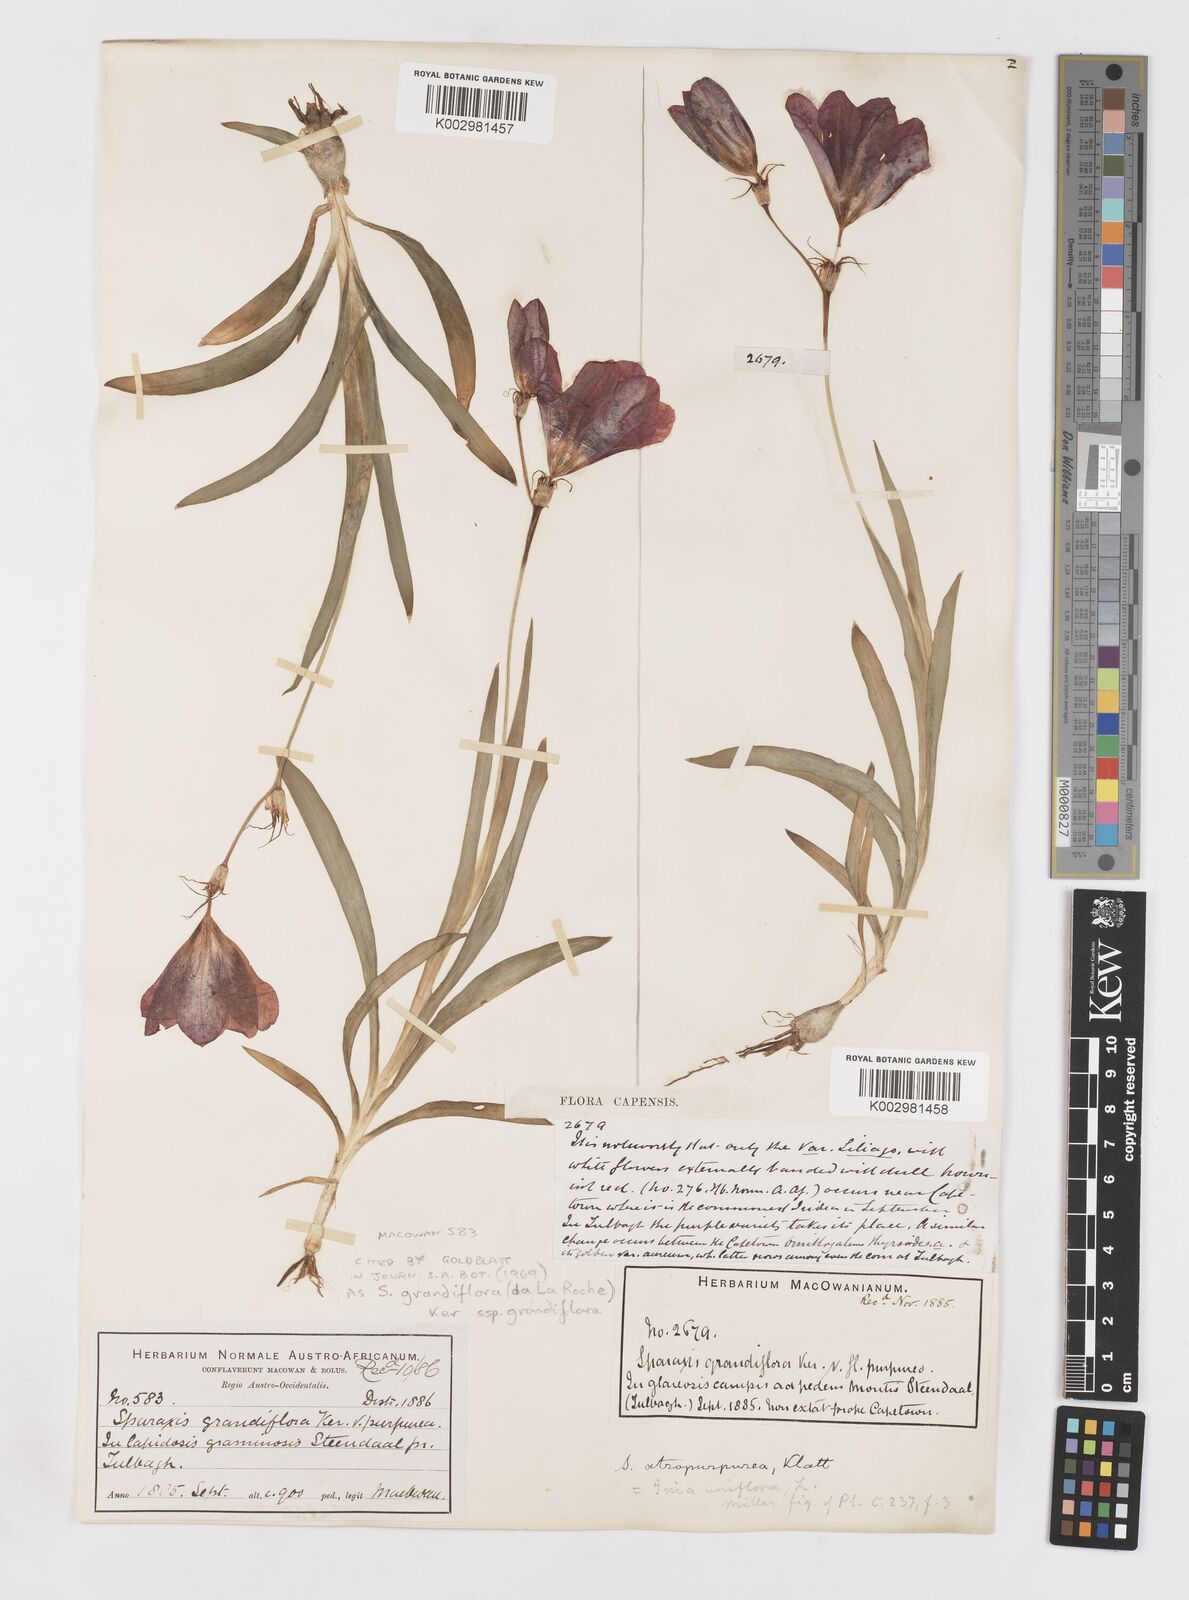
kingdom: Plantae
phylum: Tracheophyta
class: Liliopsida
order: Asparagales
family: Iridaceae
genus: Sparaxis
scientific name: Sparaxis grandiflora
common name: Plain harlequin-flower
